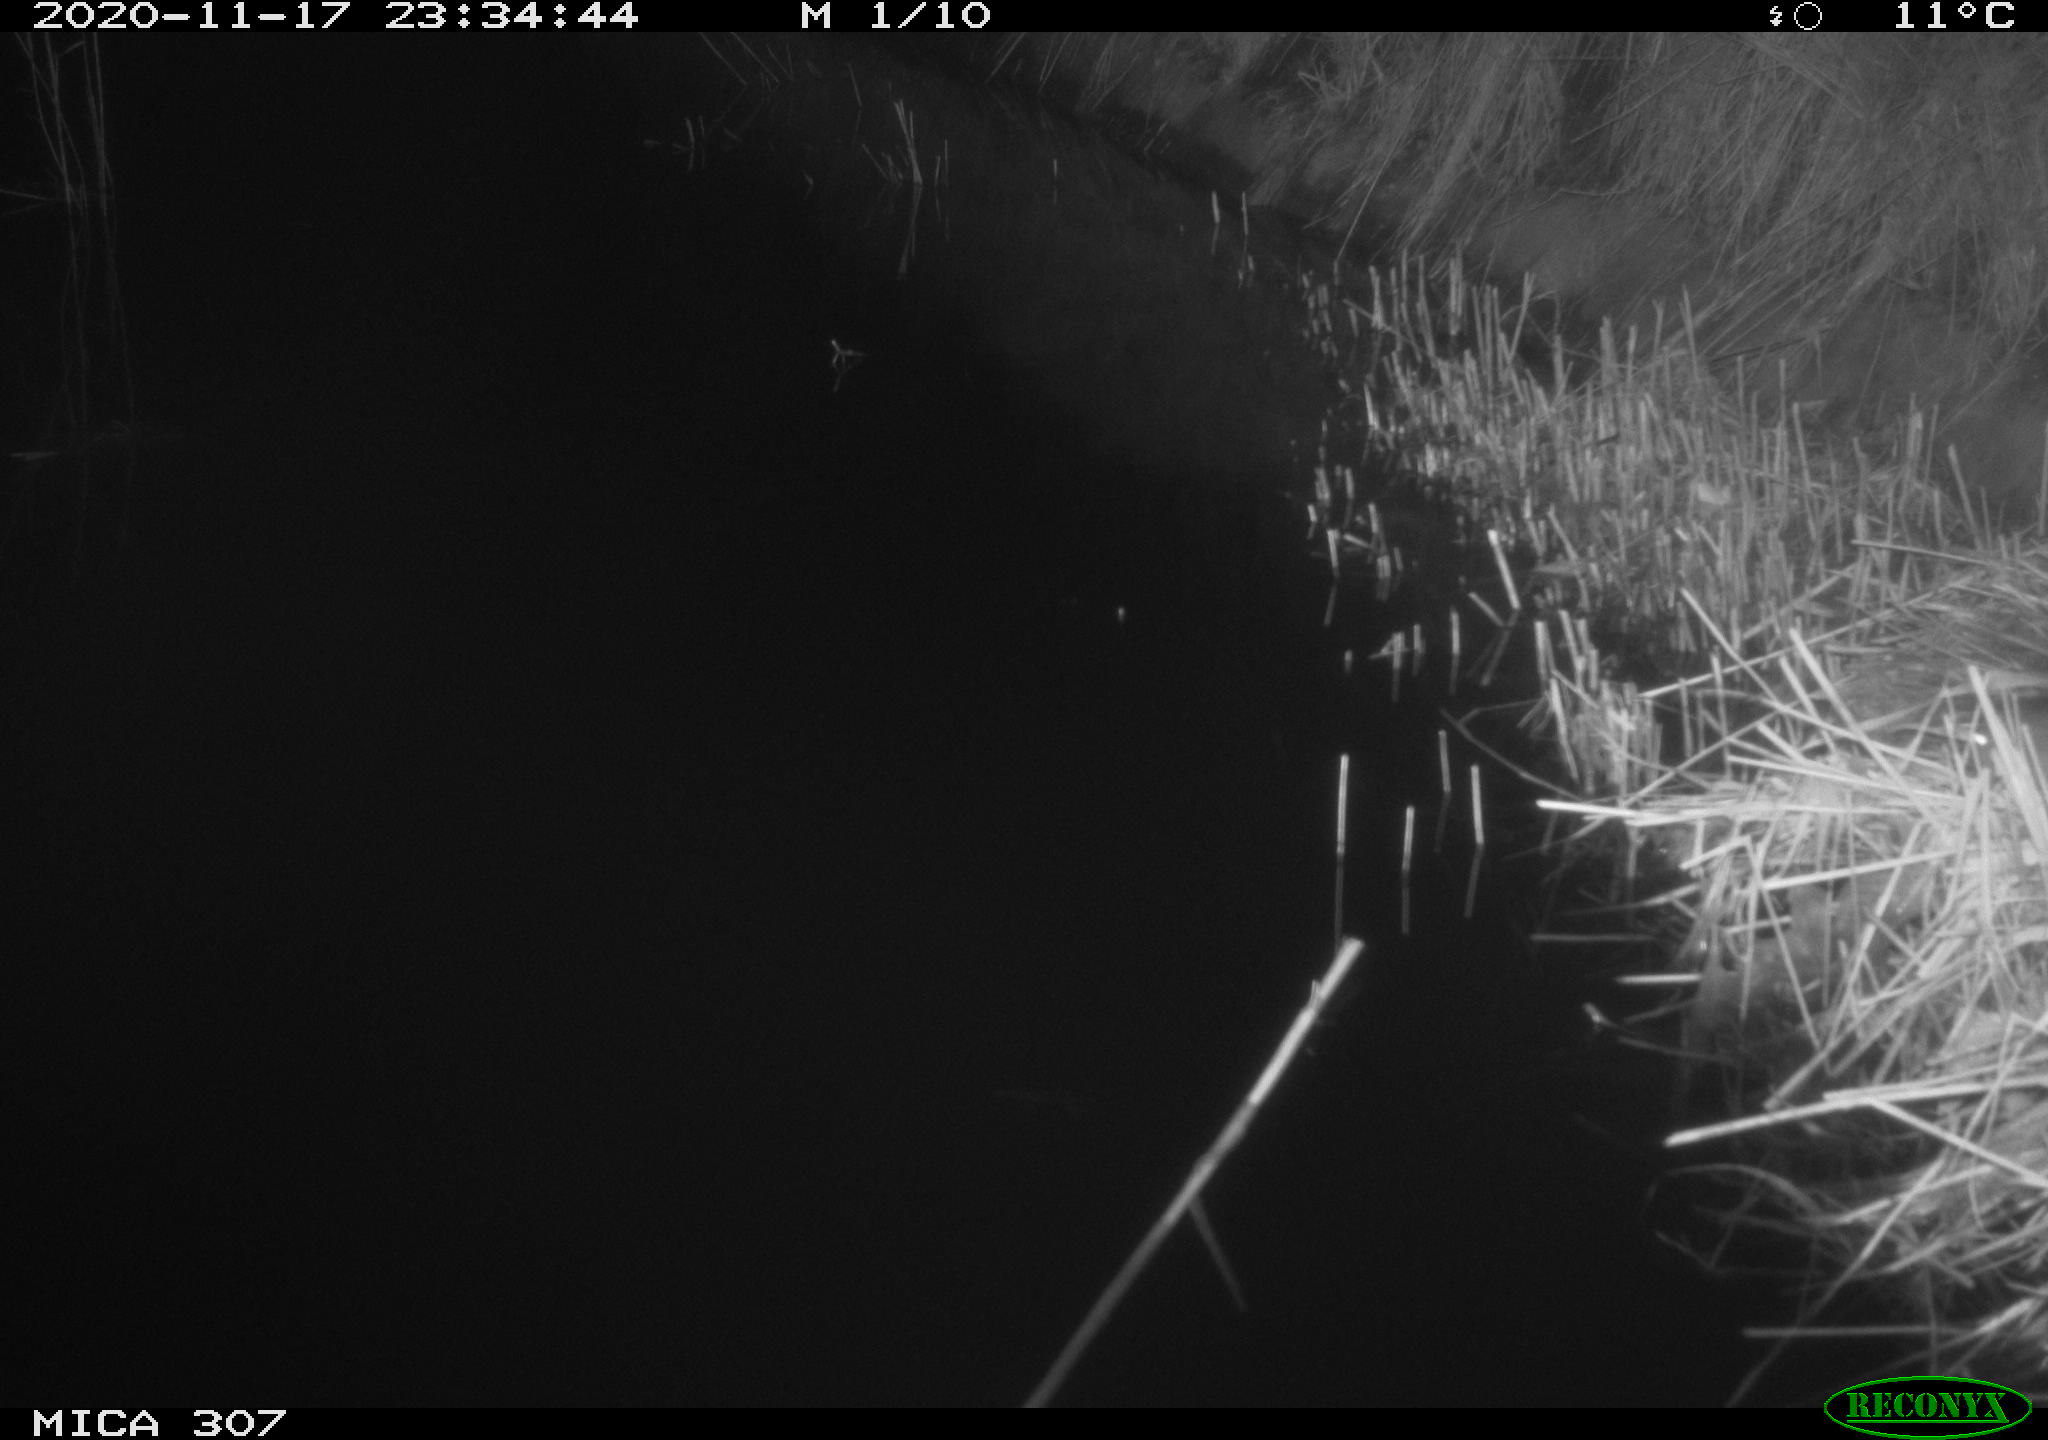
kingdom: Animalia
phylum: Chordata
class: Mammalia
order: Rodentia
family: Muridae
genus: Rattus
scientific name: Rattus norvegicus
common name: Brown rat
